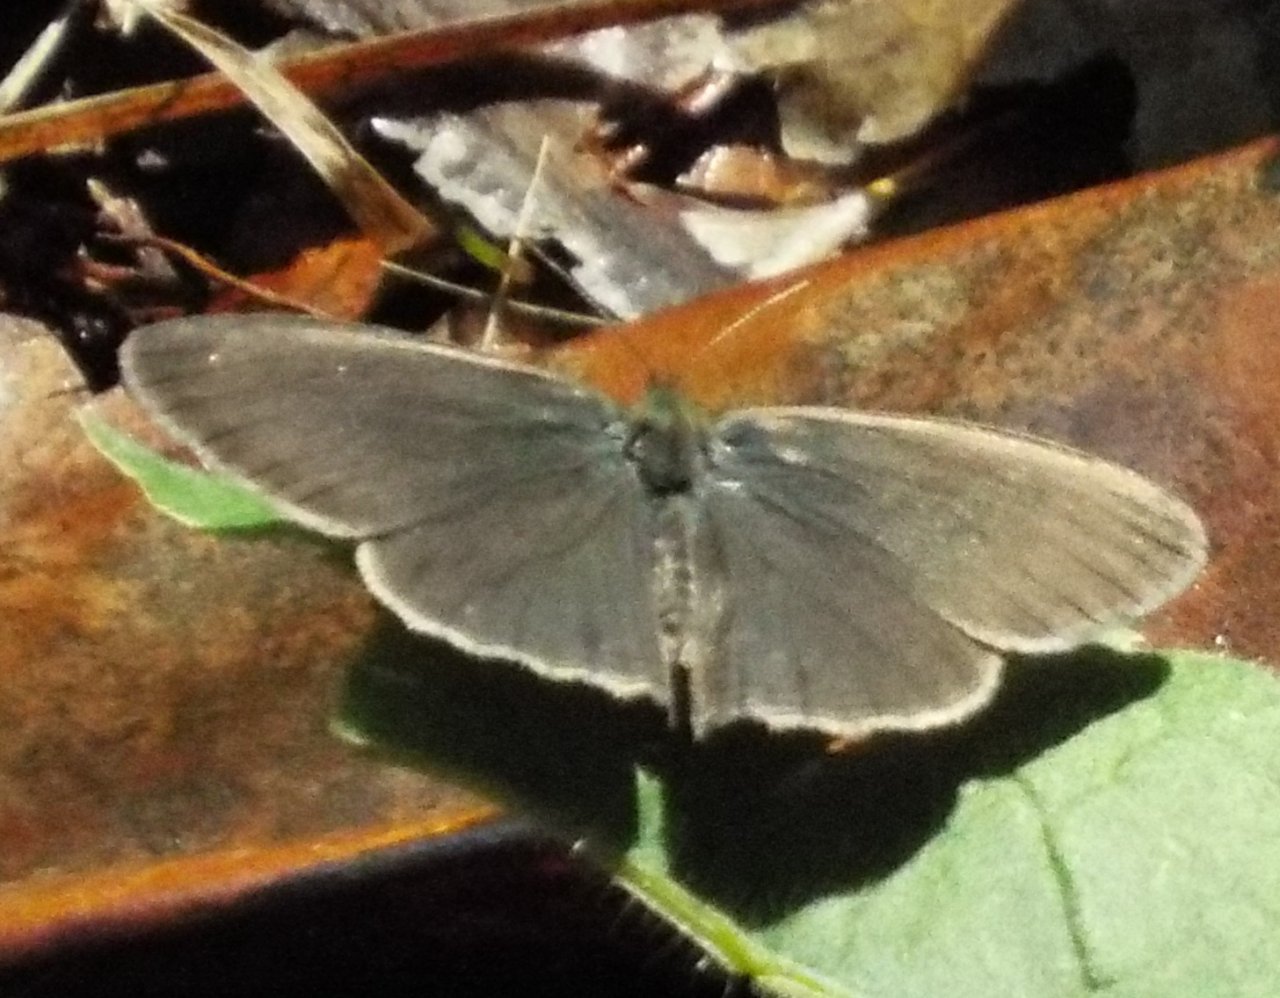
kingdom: Animalia
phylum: Arthropoda
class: Insecta
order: Lepidoptera
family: Nymphalidae
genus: Hermeuptychia
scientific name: Hermeuptychia hermes
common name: Carolina Satyr
